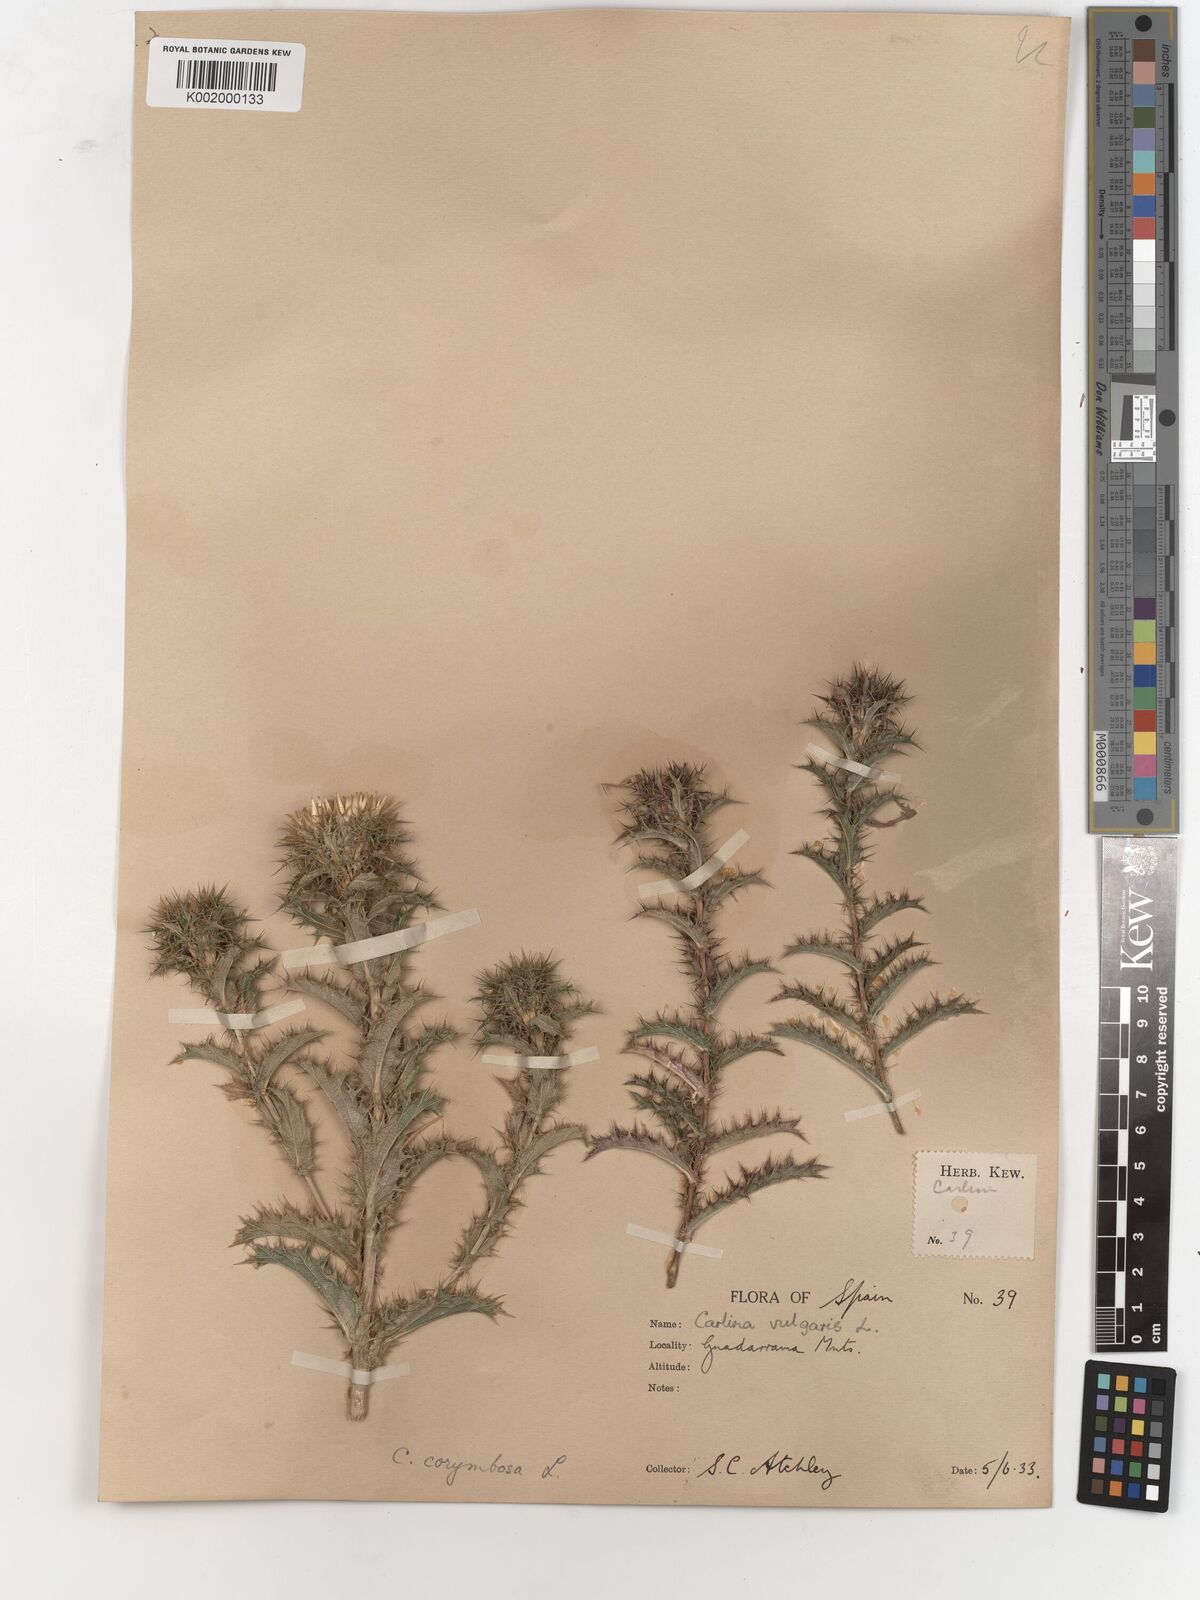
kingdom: Plantae
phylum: Tracheophyta
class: Magnoliopsida
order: Asterales
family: Asteraceae
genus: Carlina
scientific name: Carlina corymbosa
